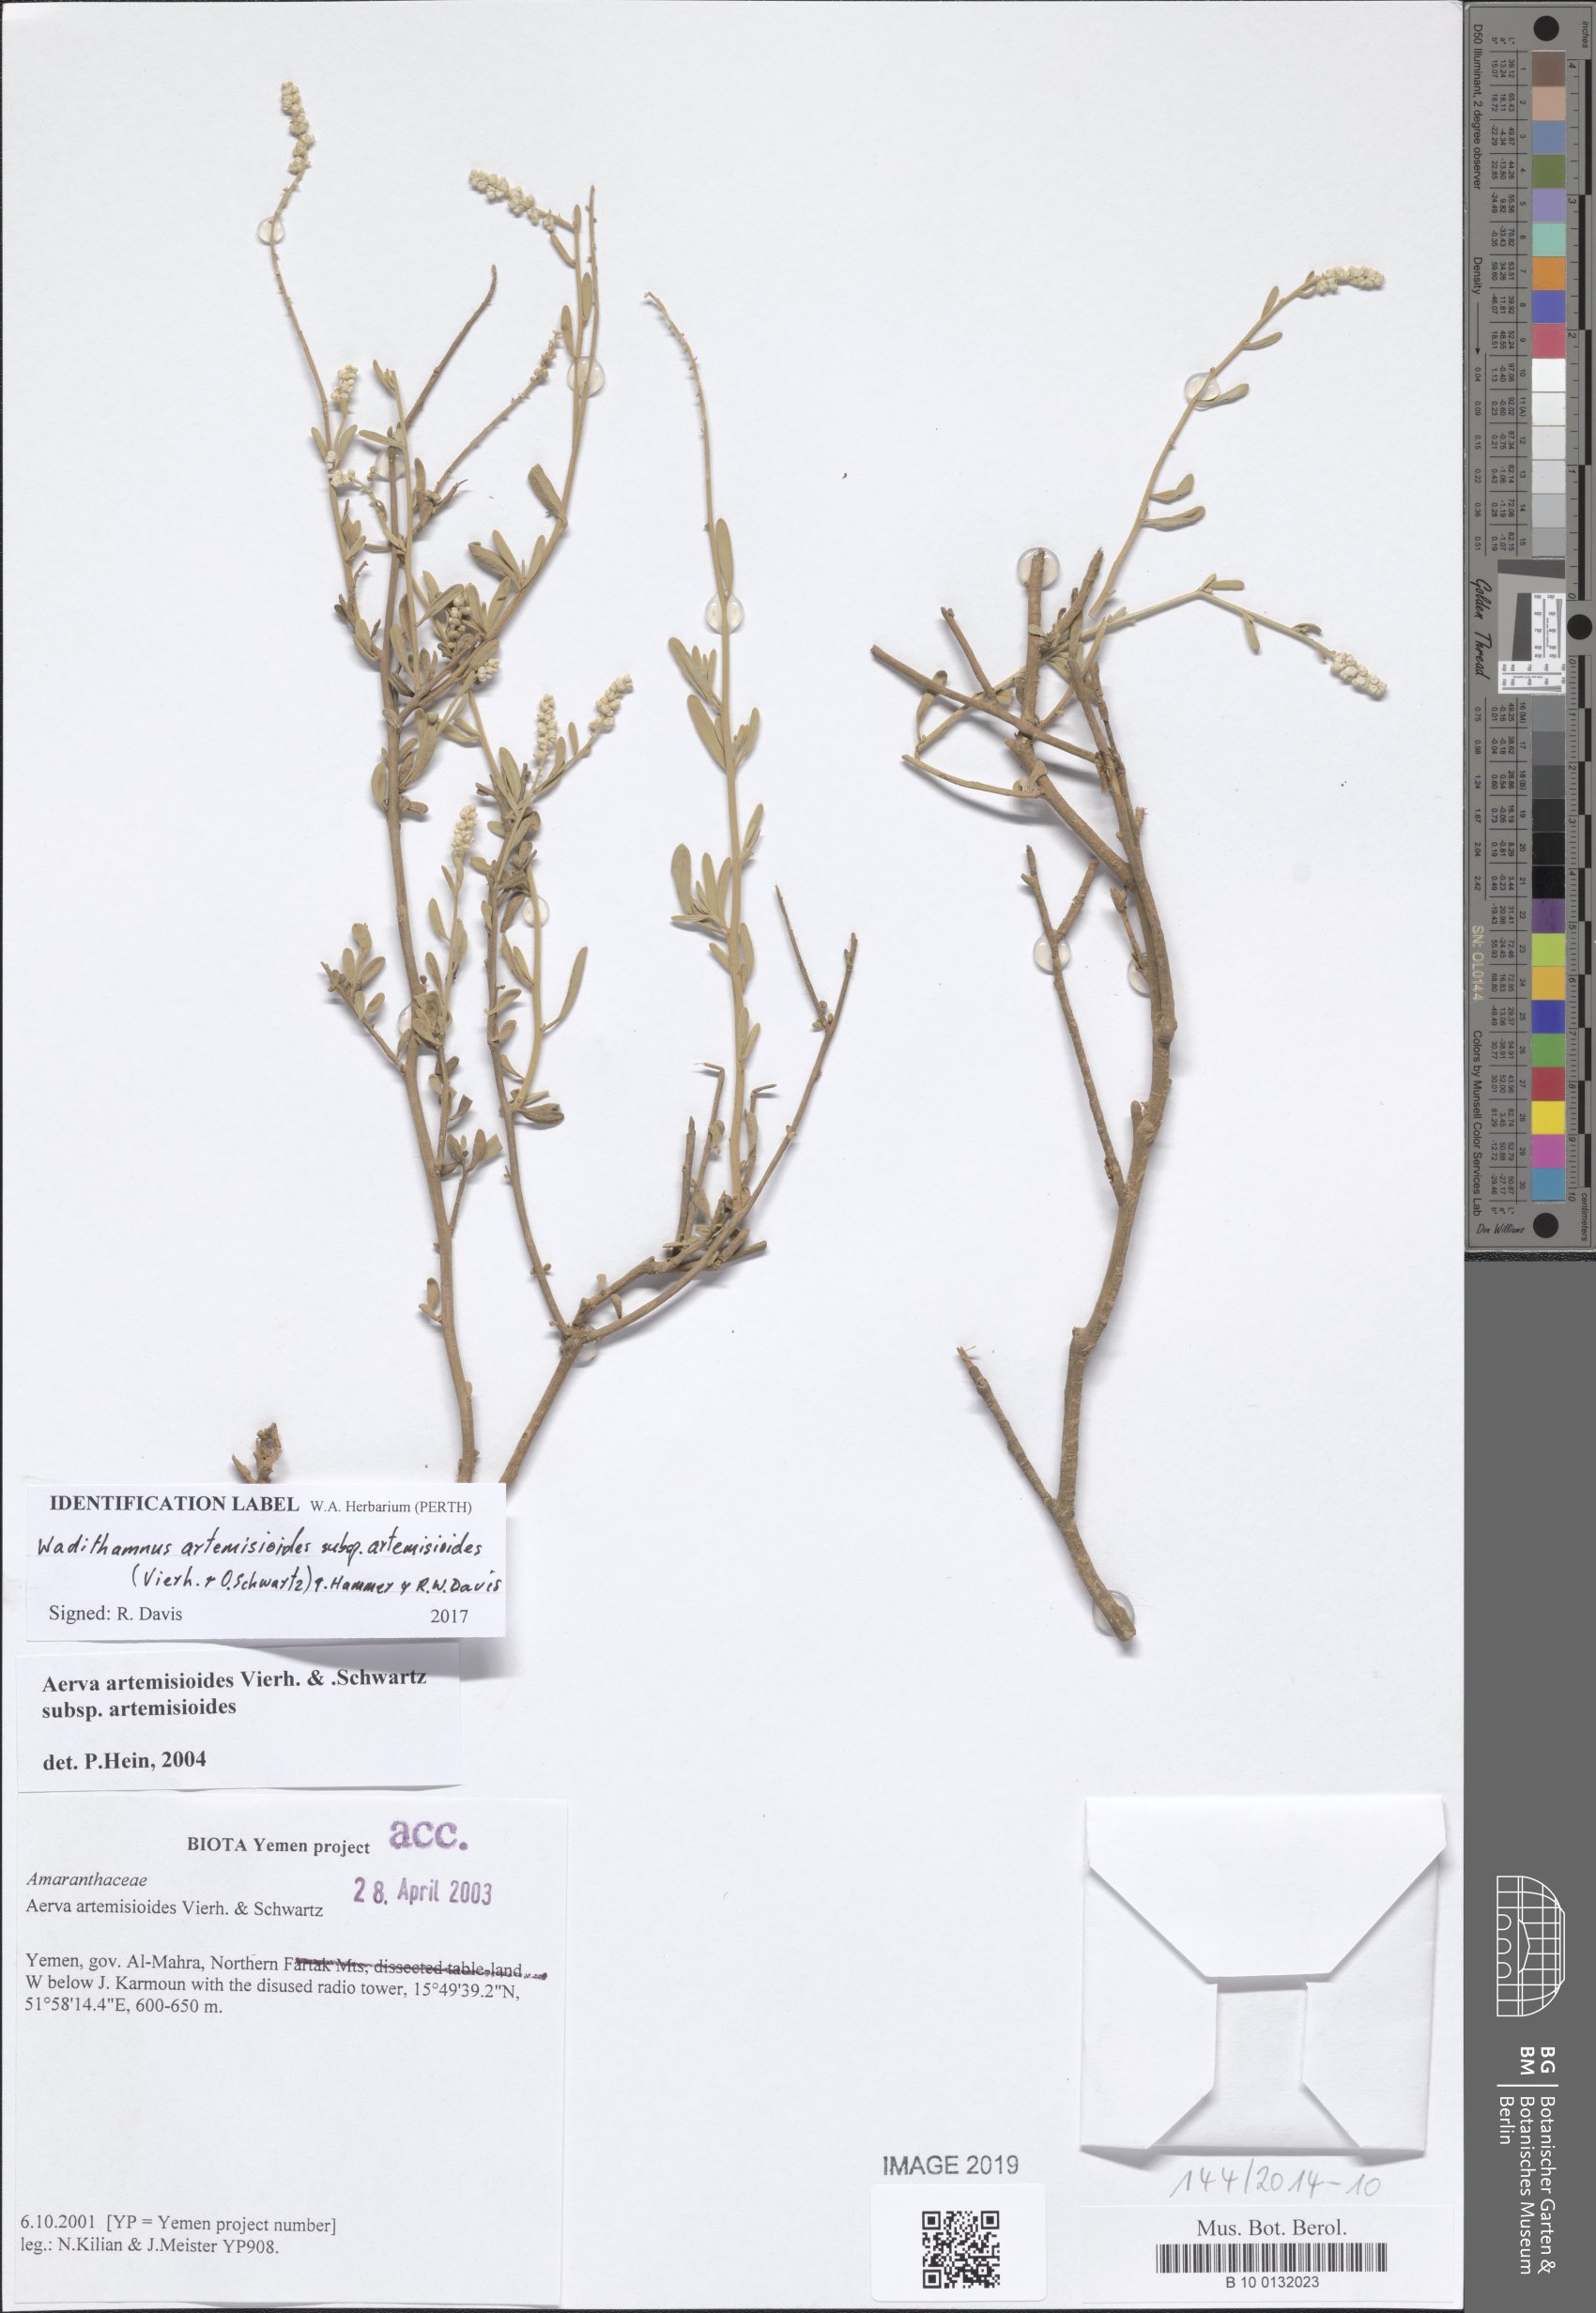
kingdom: Plantae
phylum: Tracheophyta
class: Magnoliopsida
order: Caryophyllales
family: Amaranthaceae
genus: Wadithamnus
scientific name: Wadithamnus artemisioides
